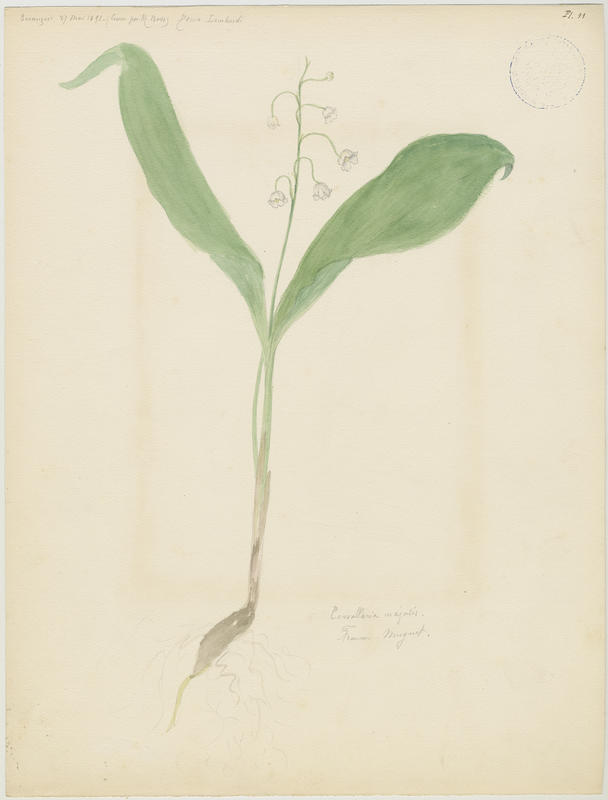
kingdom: Plantae
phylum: Tracheophyta
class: Liliopsida
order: Asparagales
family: Asparagaceae
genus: Convallaria
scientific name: Convallaria majalis
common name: Lily-of-the-valley
